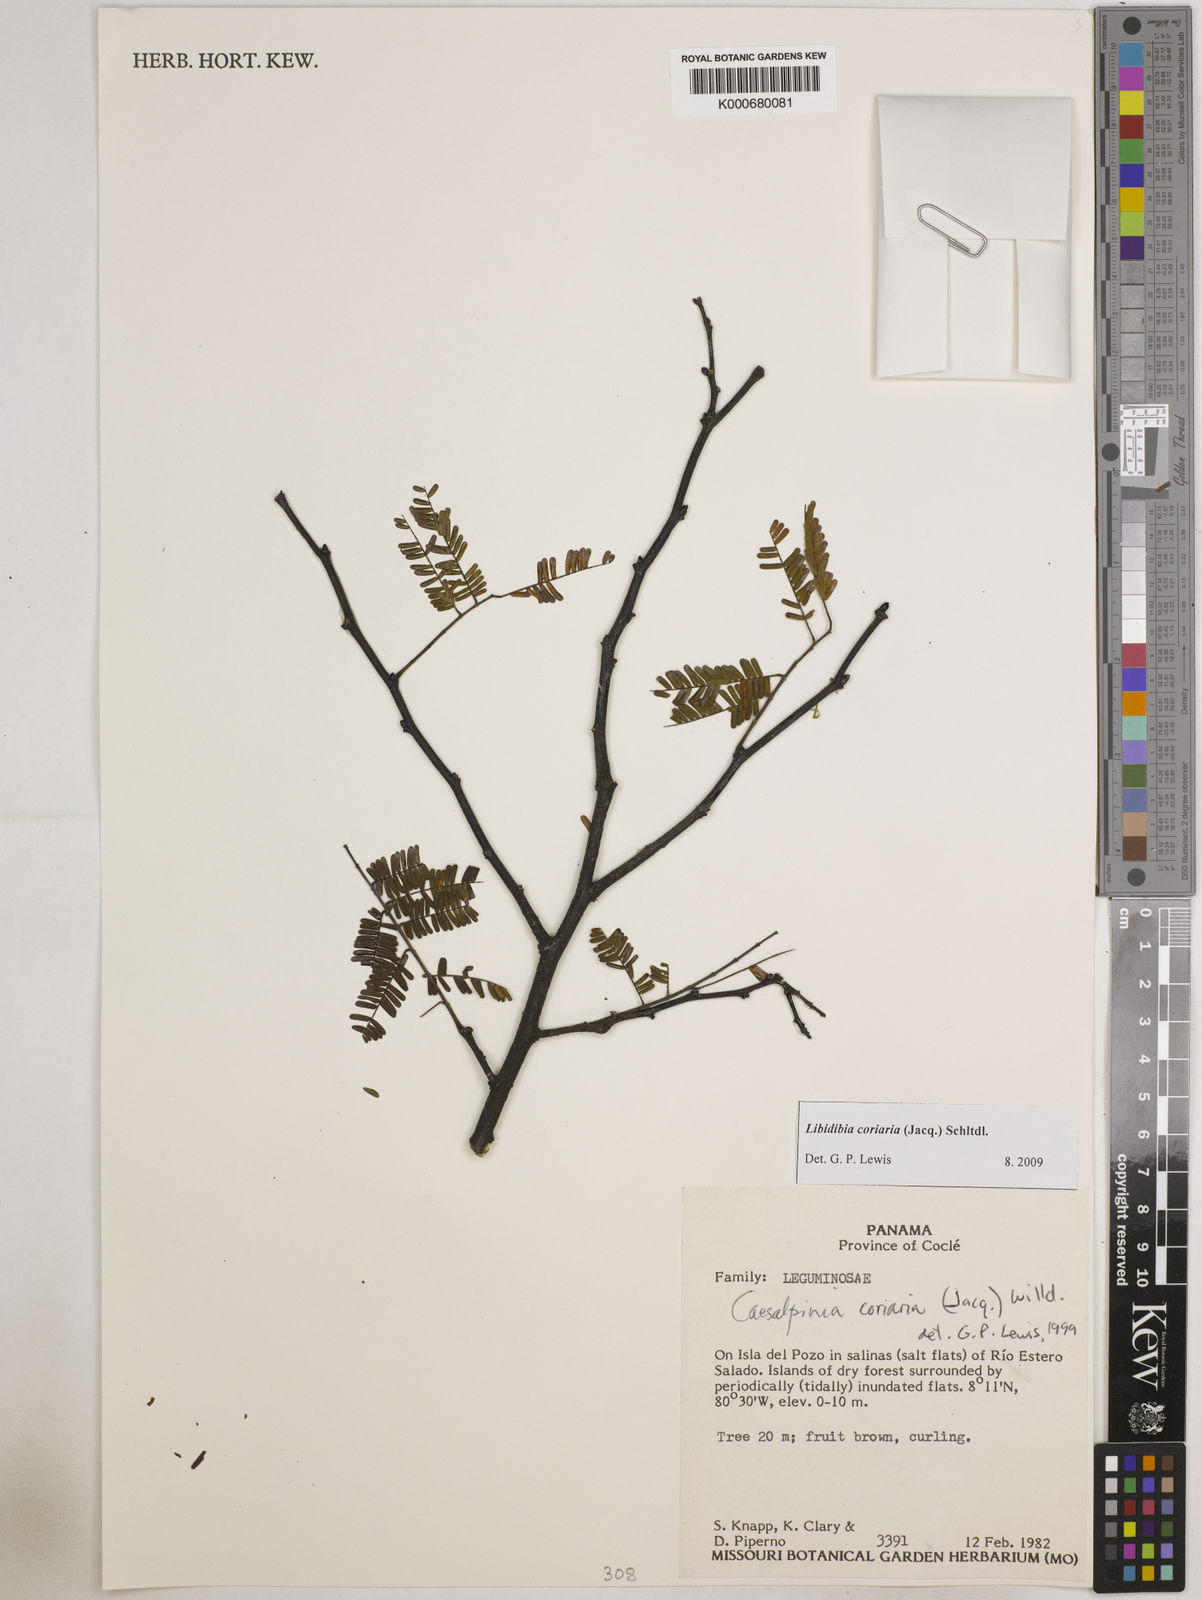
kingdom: Plantae
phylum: Tracheophyta
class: Magnoliopsida
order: Fabales
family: Fabaceae
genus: Libidibia
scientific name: Libidibia coriaria
